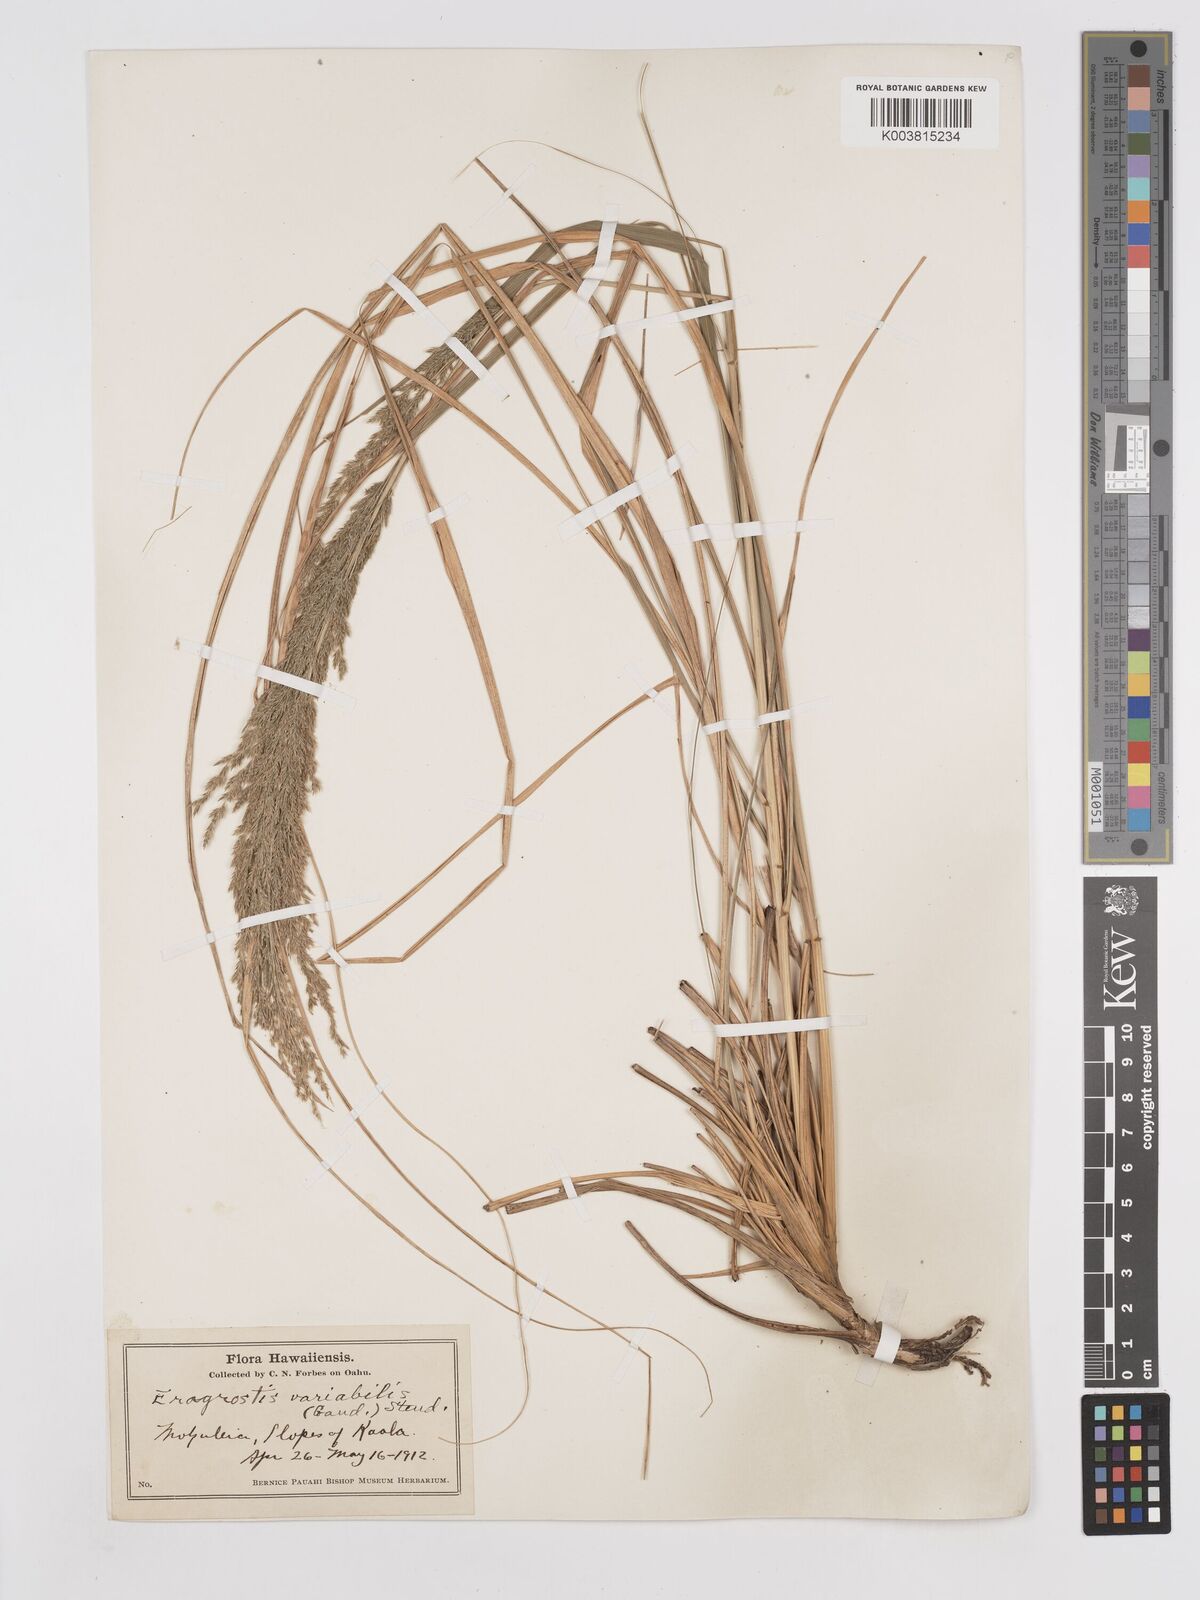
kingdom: Plantae
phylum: Tracheophyta
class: Liliopsida
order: Poales
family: Poaceae
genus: Eragrostis
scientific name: Eragrostis variabilis
